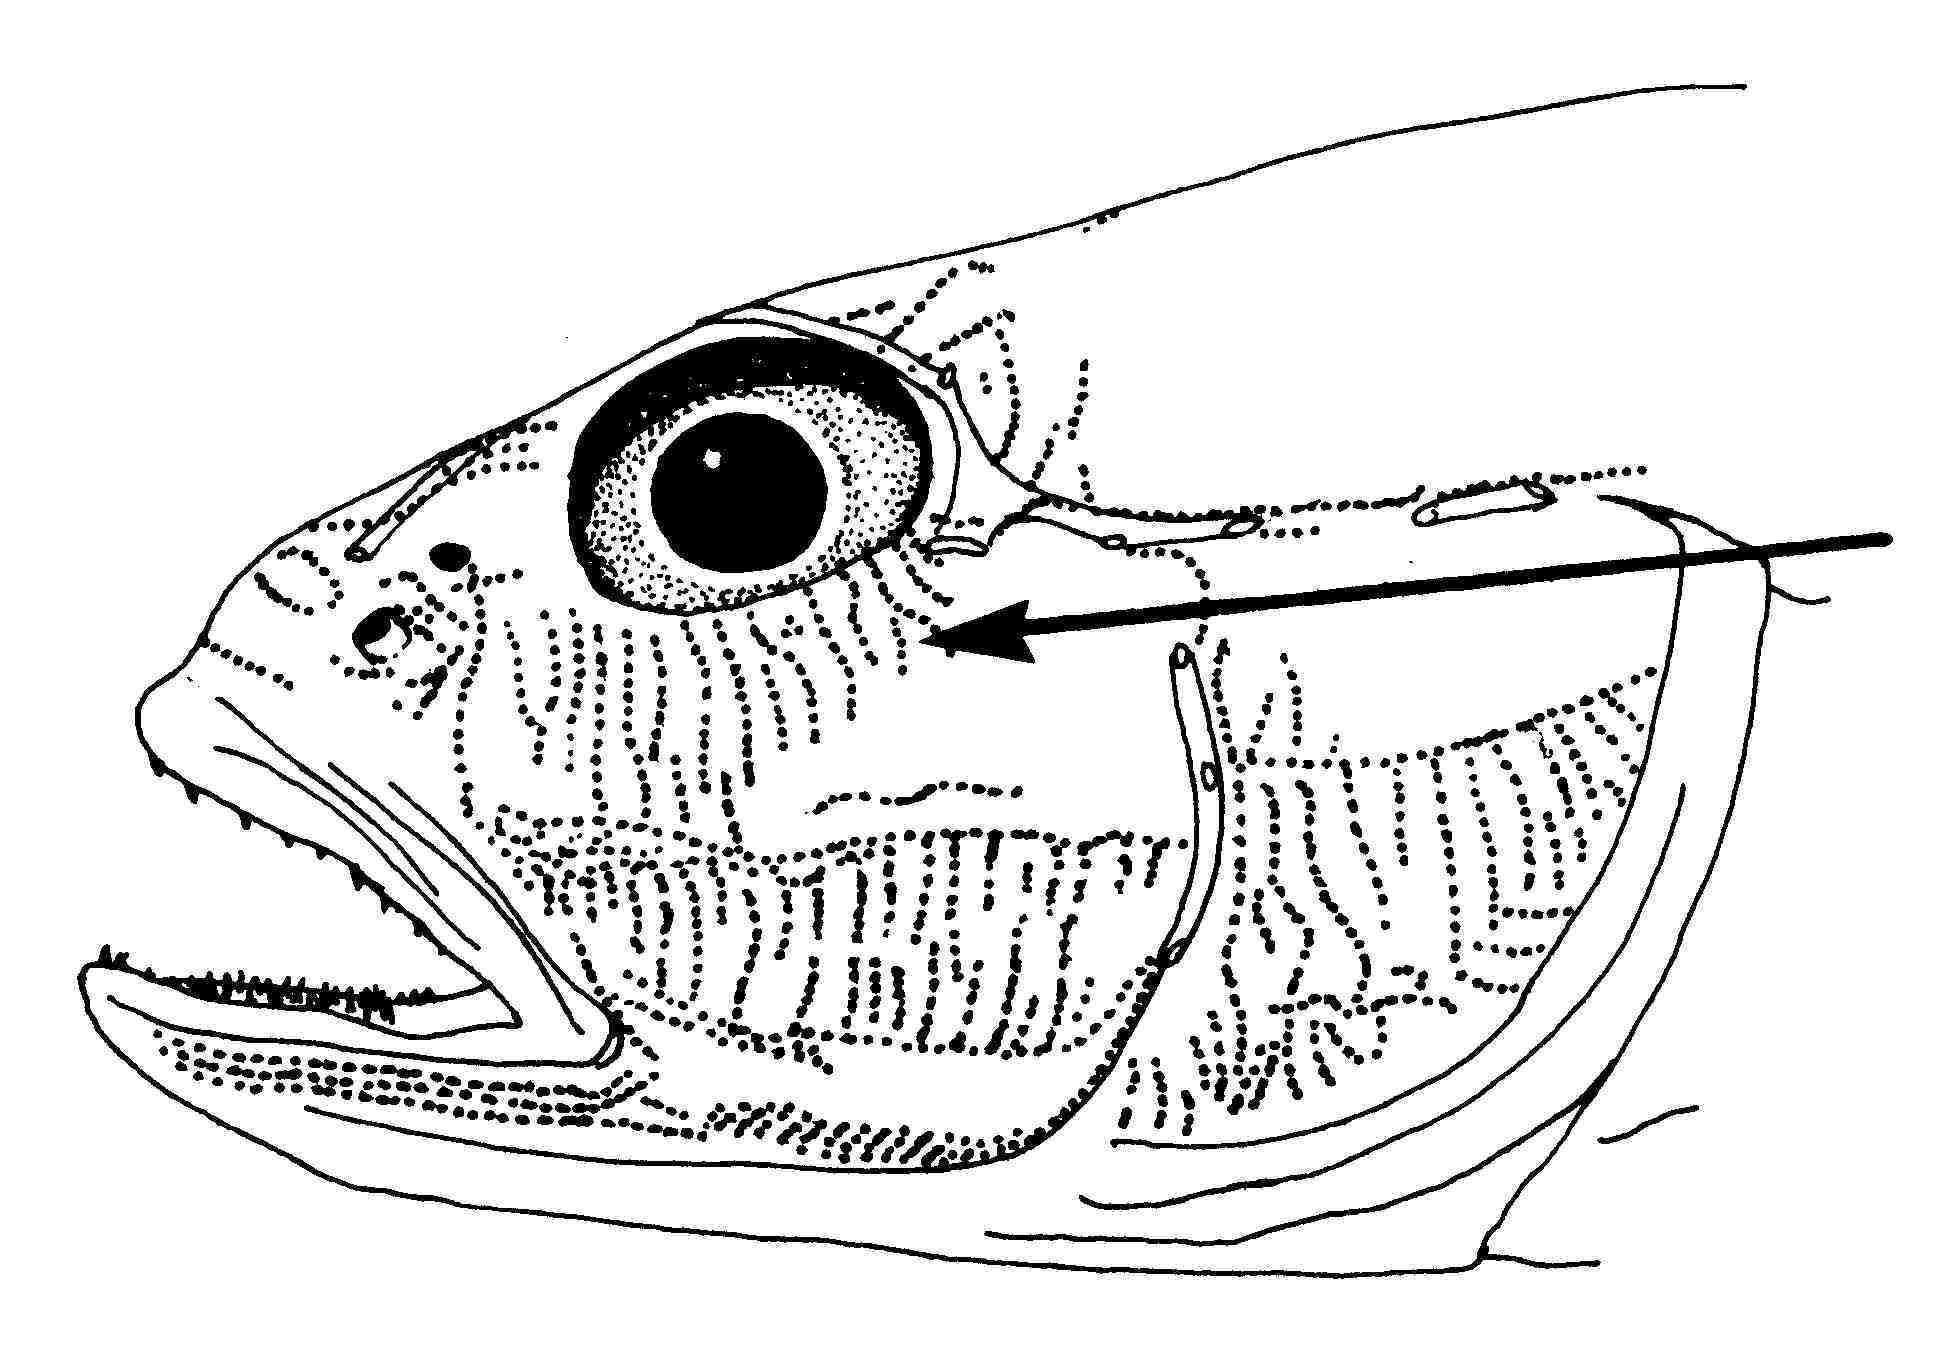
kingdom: Animalia
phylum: Chordata
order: Perciformes
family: Gobiidae
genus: Arcygobius
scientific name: Arcygobius baliurus
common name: Isthmus goby
